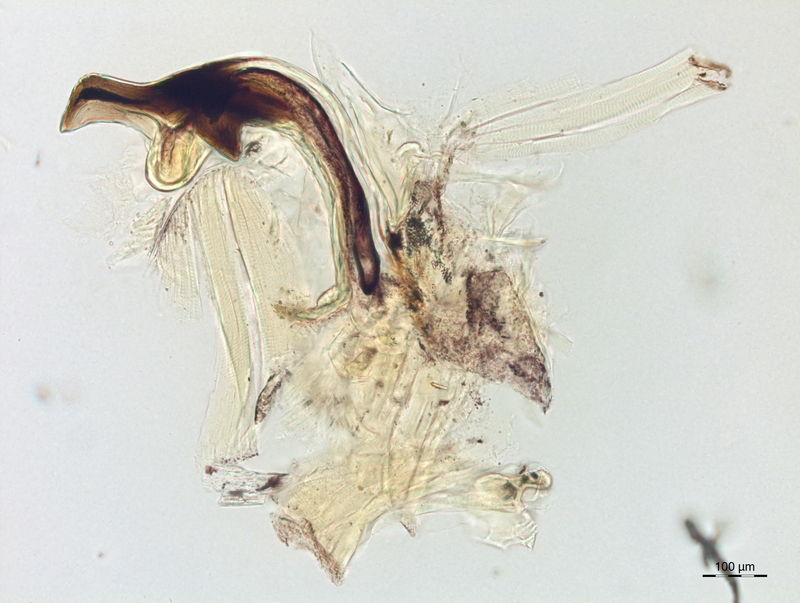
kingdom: Animalia
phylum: Arthropoda
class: Diplopoda
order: Chordeumatida
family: Craspedosomatidae
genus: Craspedosoma
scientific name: Craspedosoma rawlinsii
